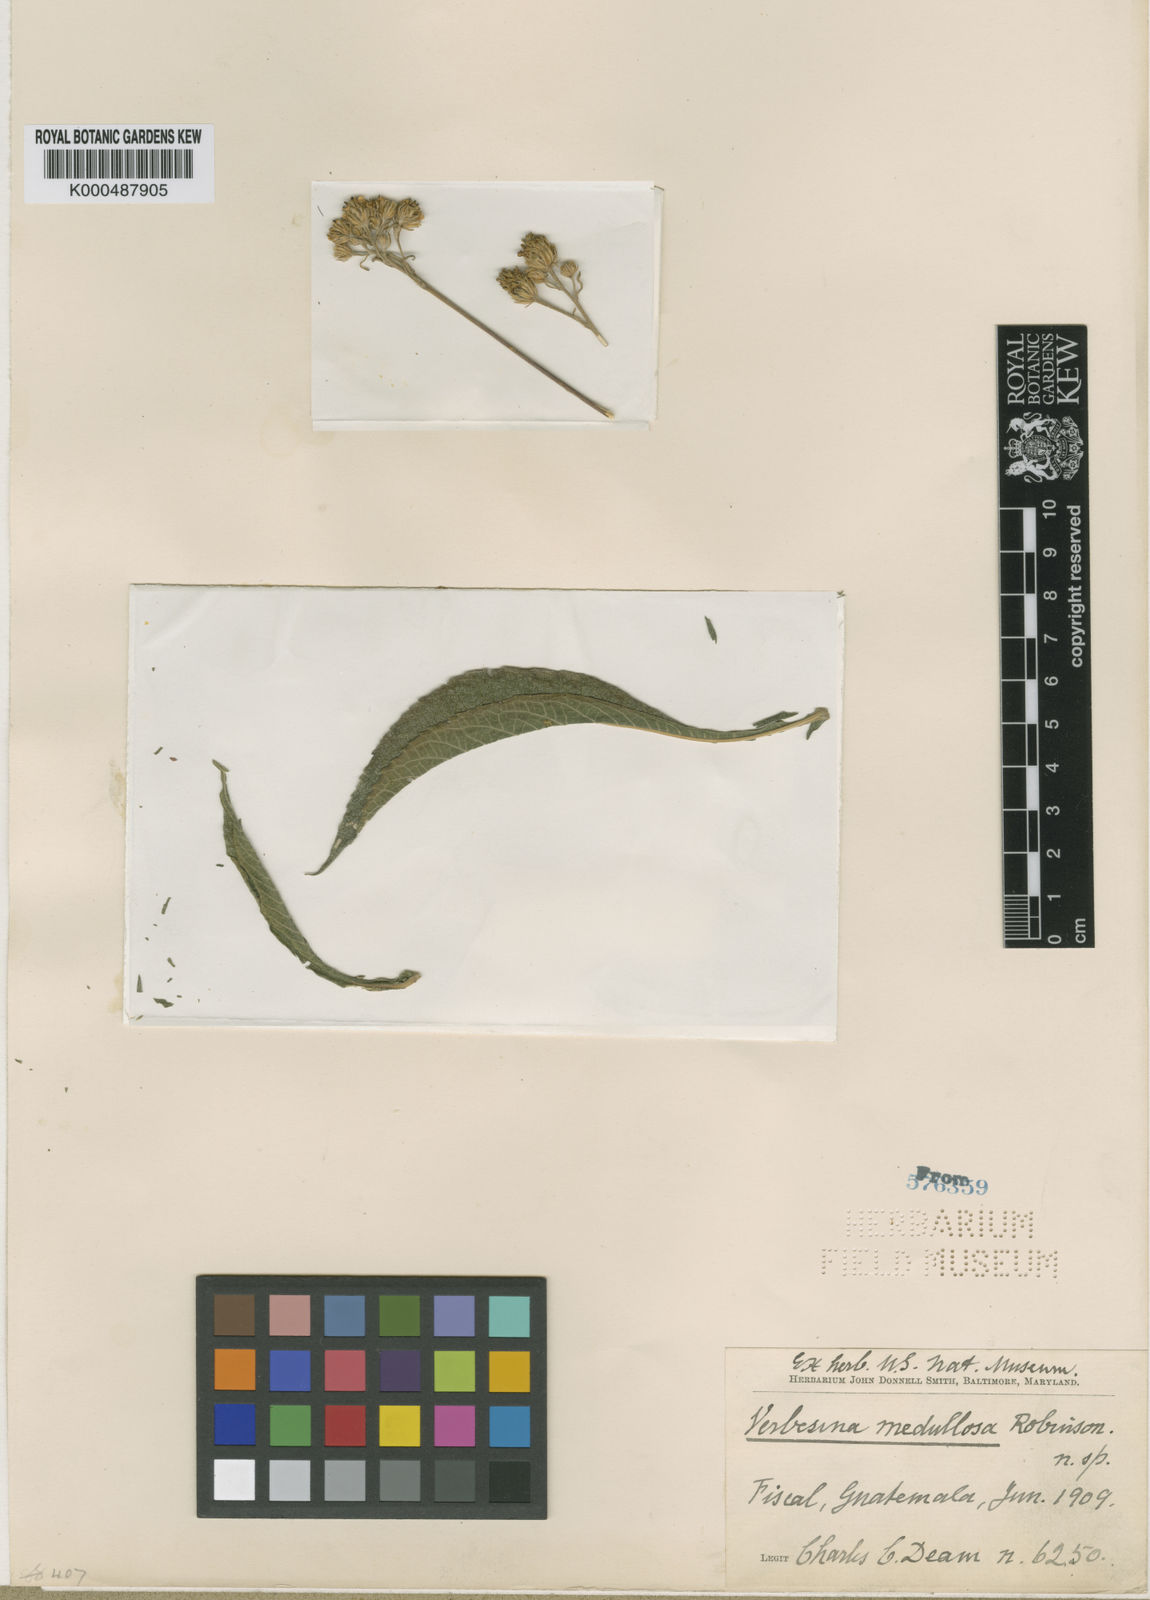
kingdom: Plantae
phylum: Tracheophyta
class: Magnoliopsida
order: Asterales
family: Asteraceae
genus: Verbesina
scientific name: Verbesina guatemalensis
